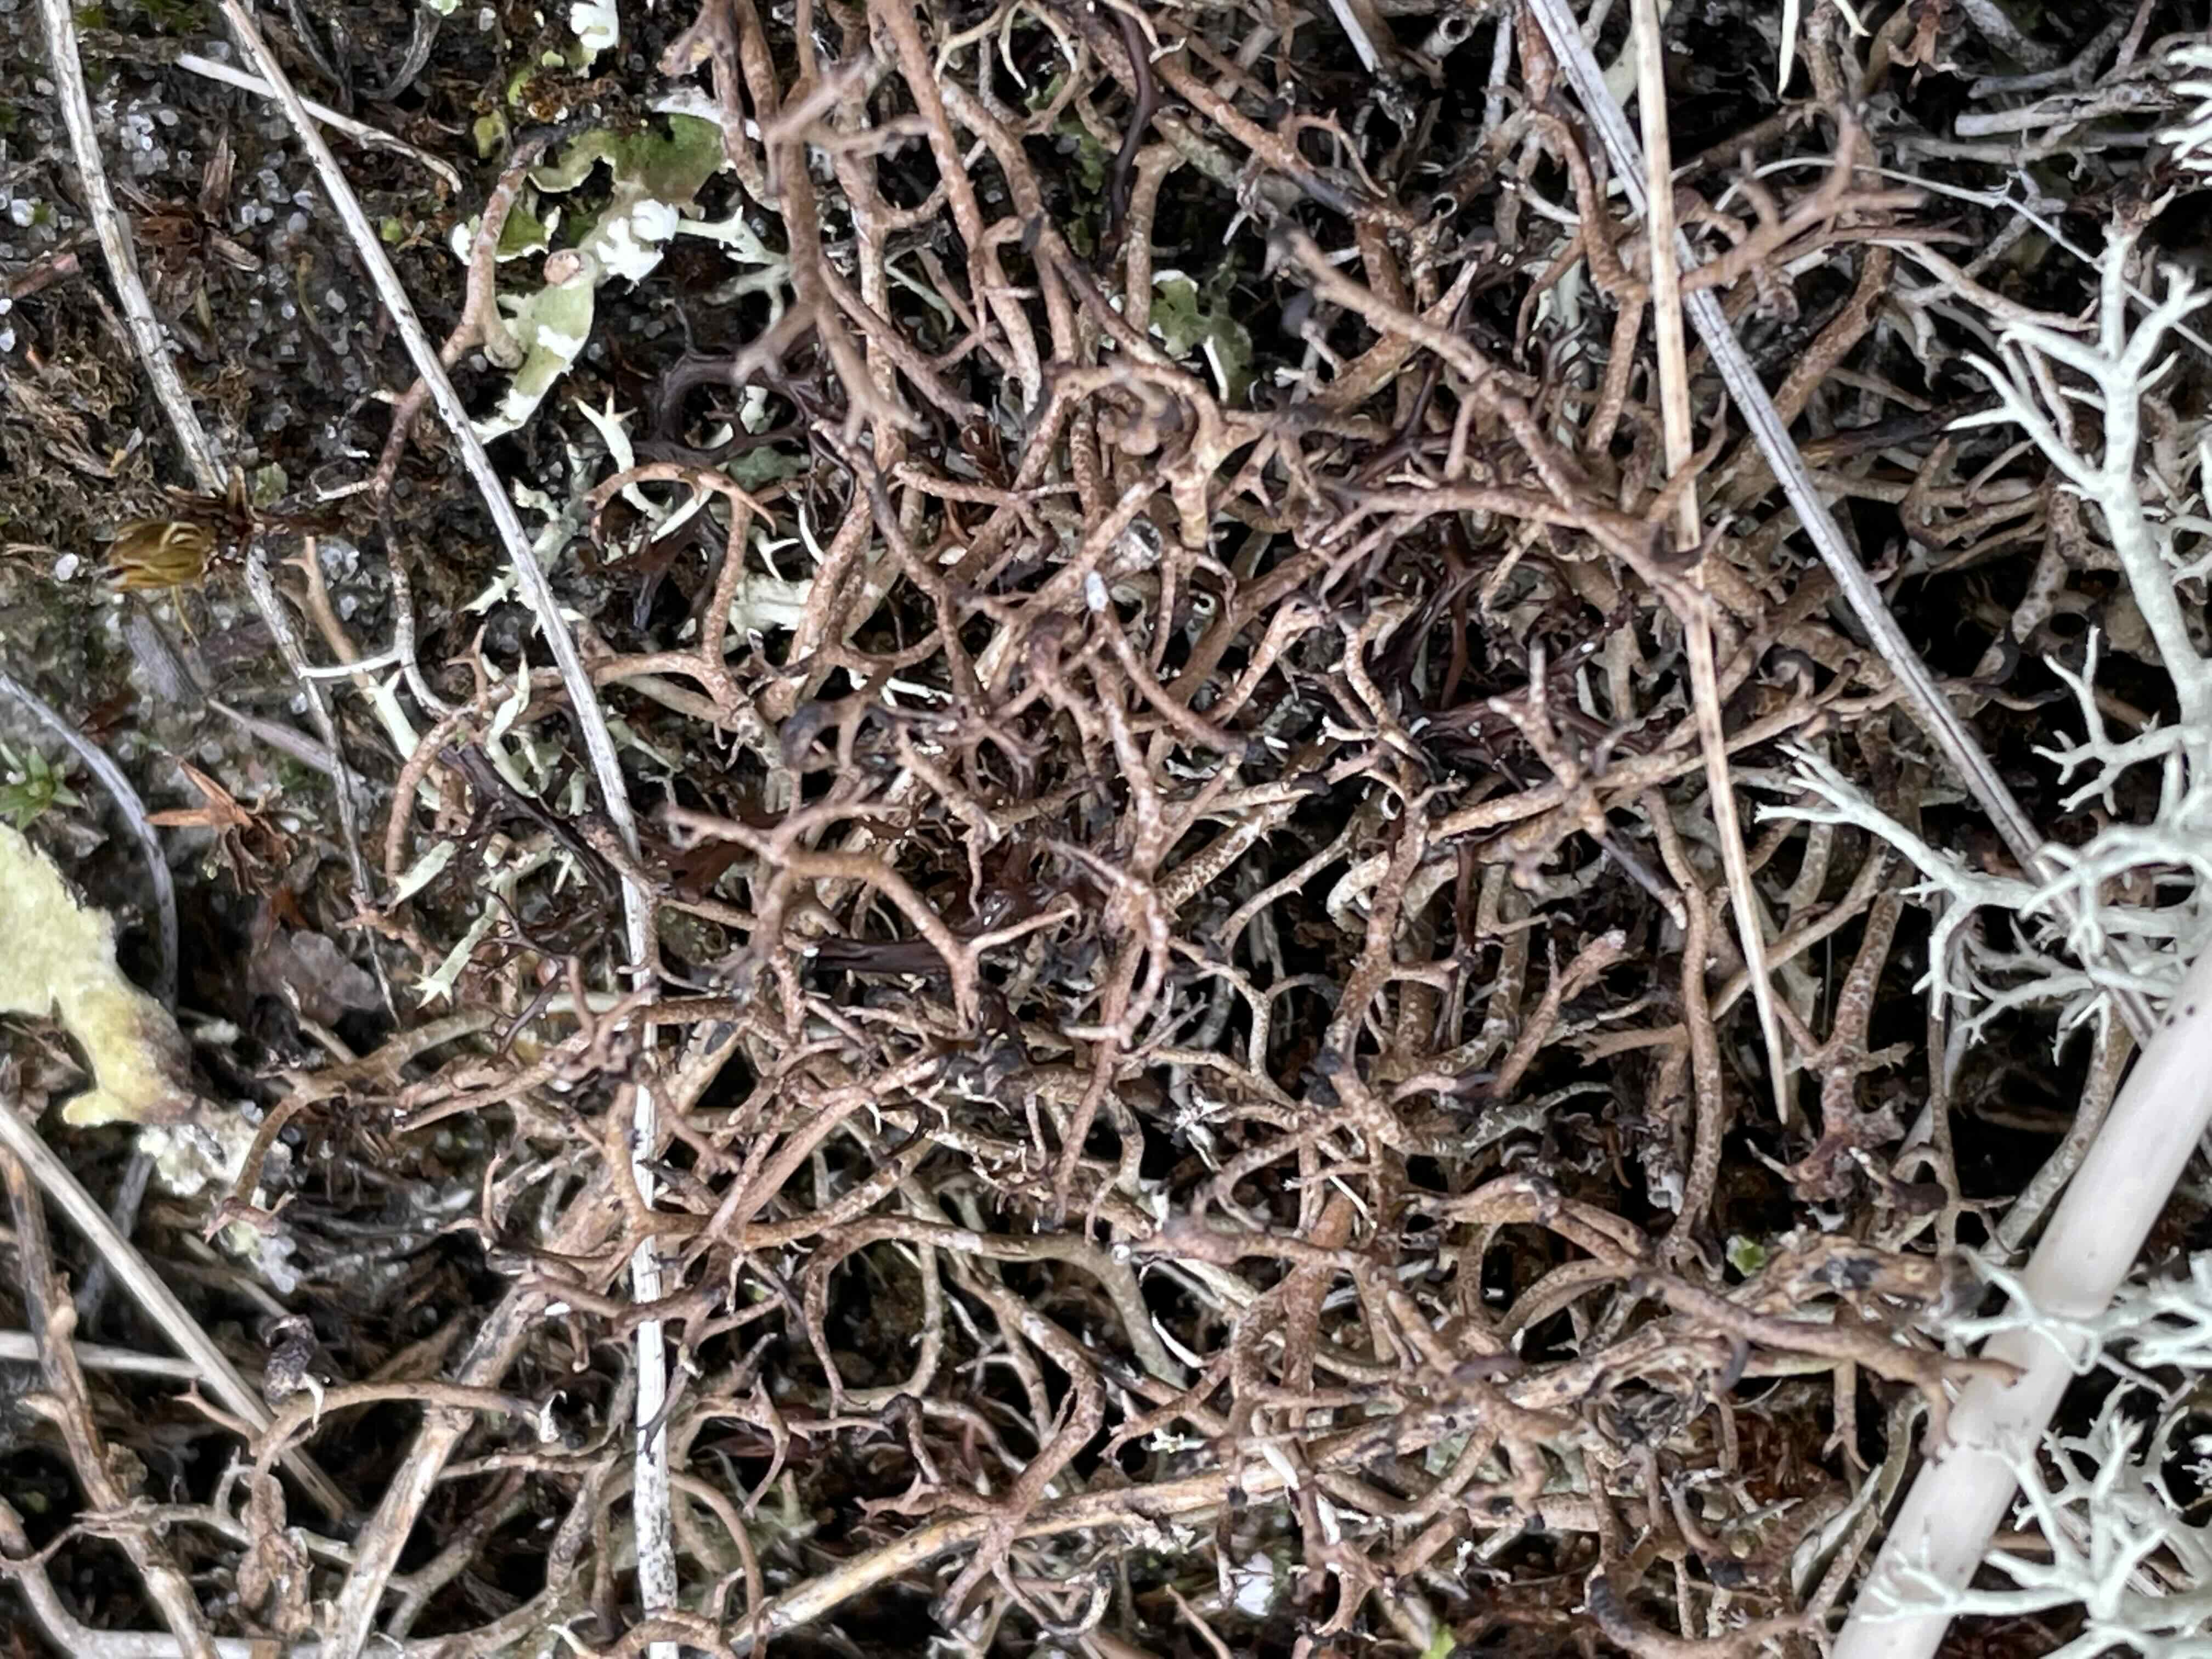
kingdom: Fungi
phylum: Ascomycota
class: Lecanoromycetes
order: Lecanorales
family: Cladoniaceae
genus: Cladonia
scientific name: Cladonia furcata
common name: kløftet bægerlav
